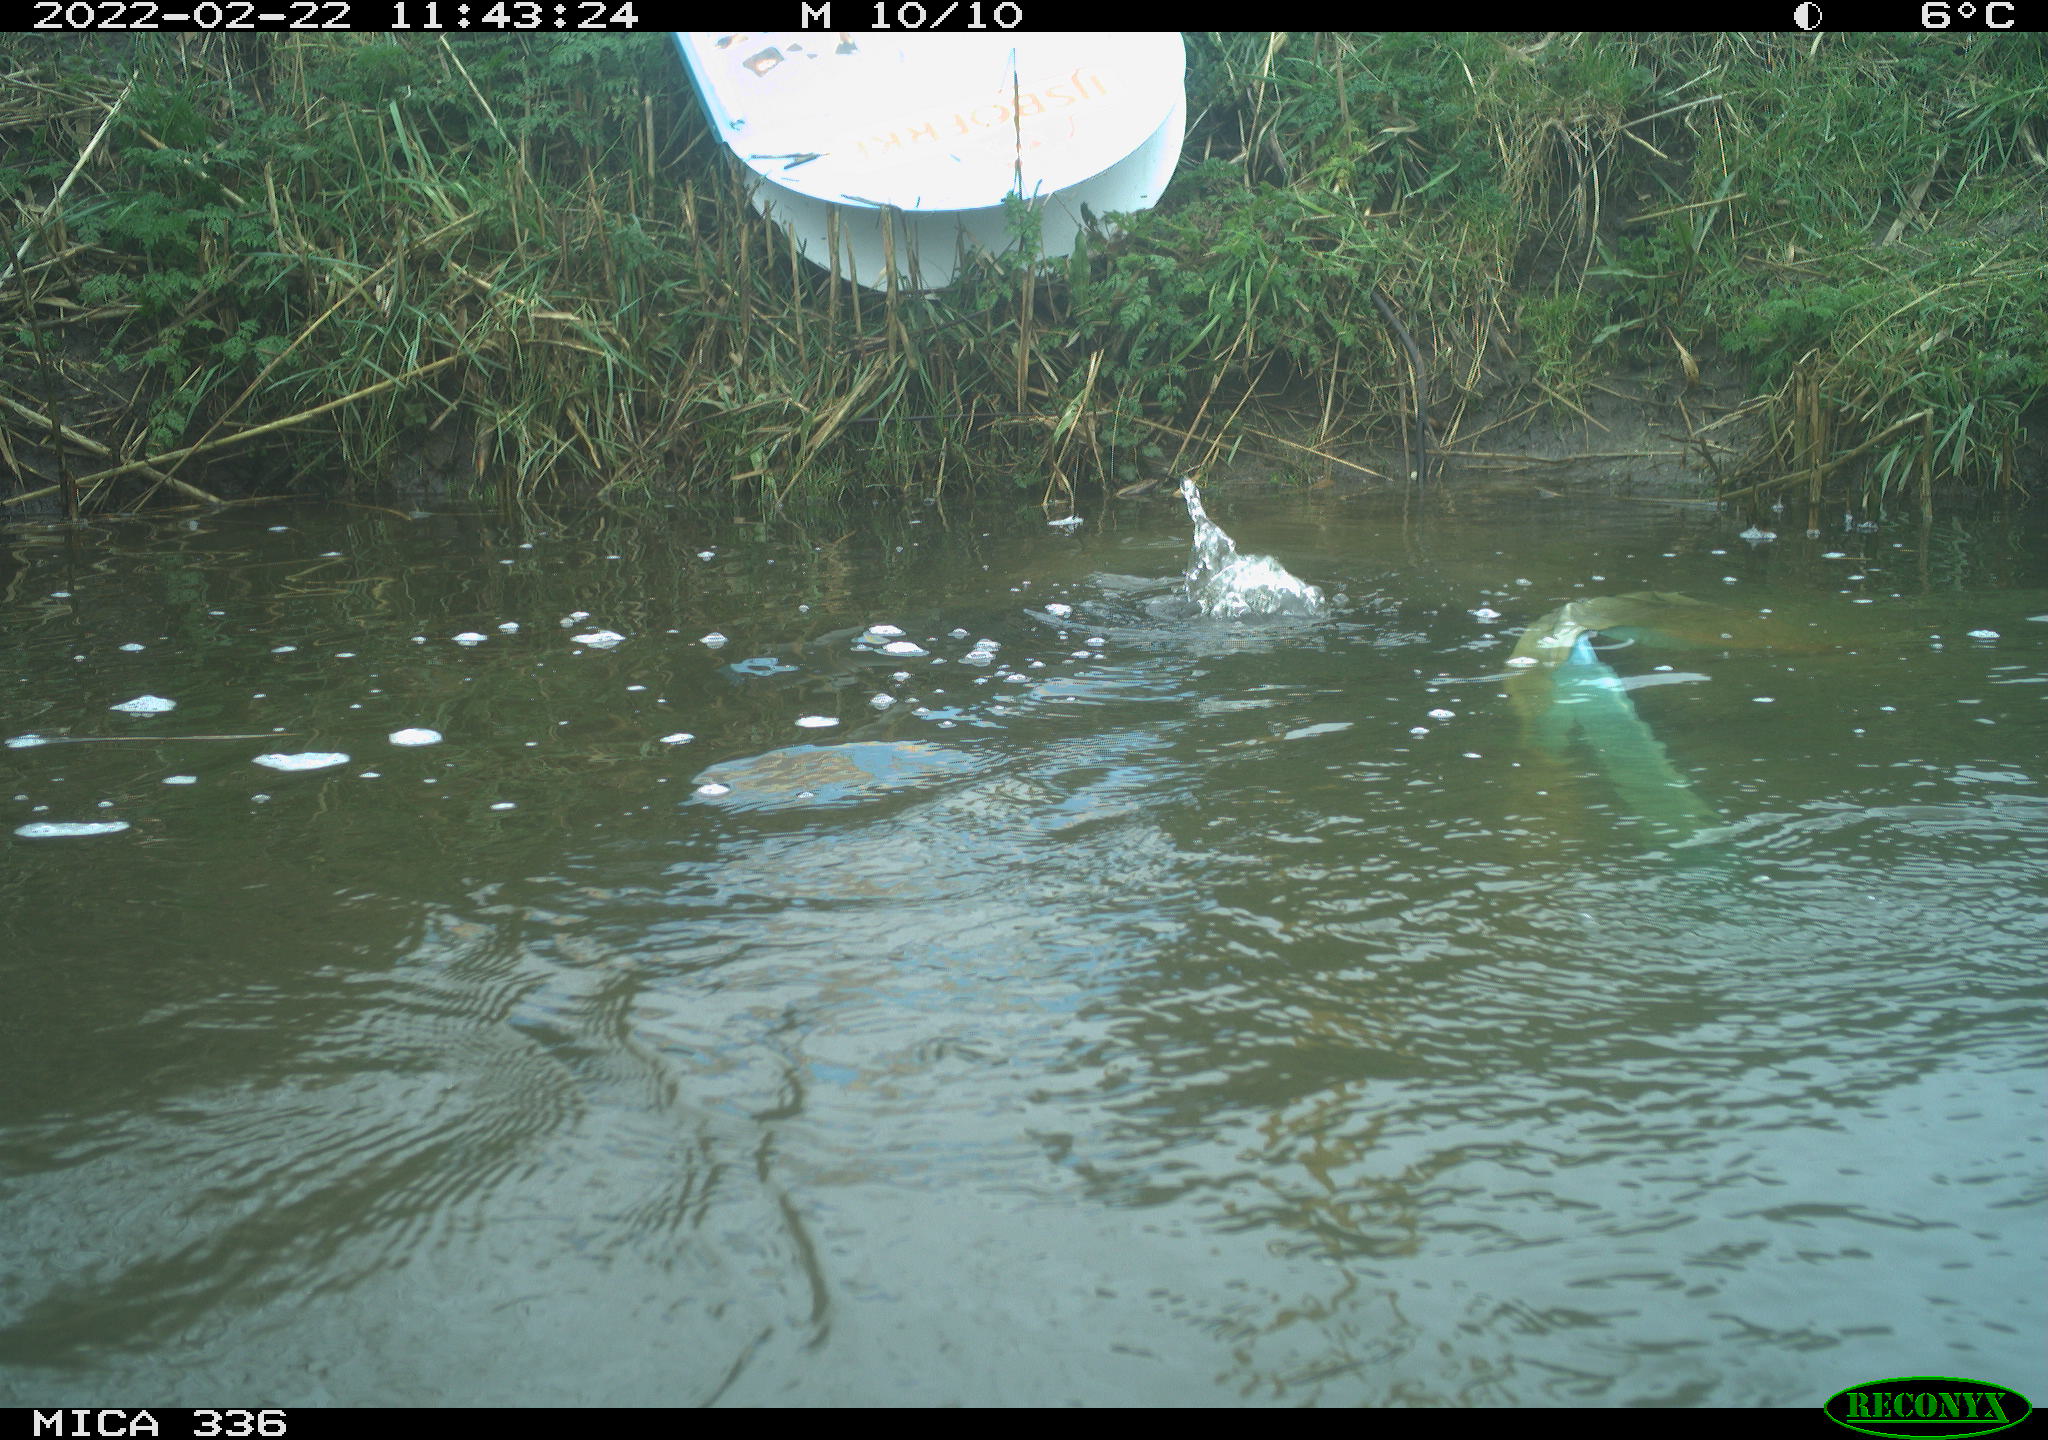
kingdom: Animalia
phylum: Chordata
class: Aves
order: Suliformes
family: Phalacrocoracidae
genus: Phalacrocorax
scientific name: Phalacrocorax carbo
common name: Great cormorant
